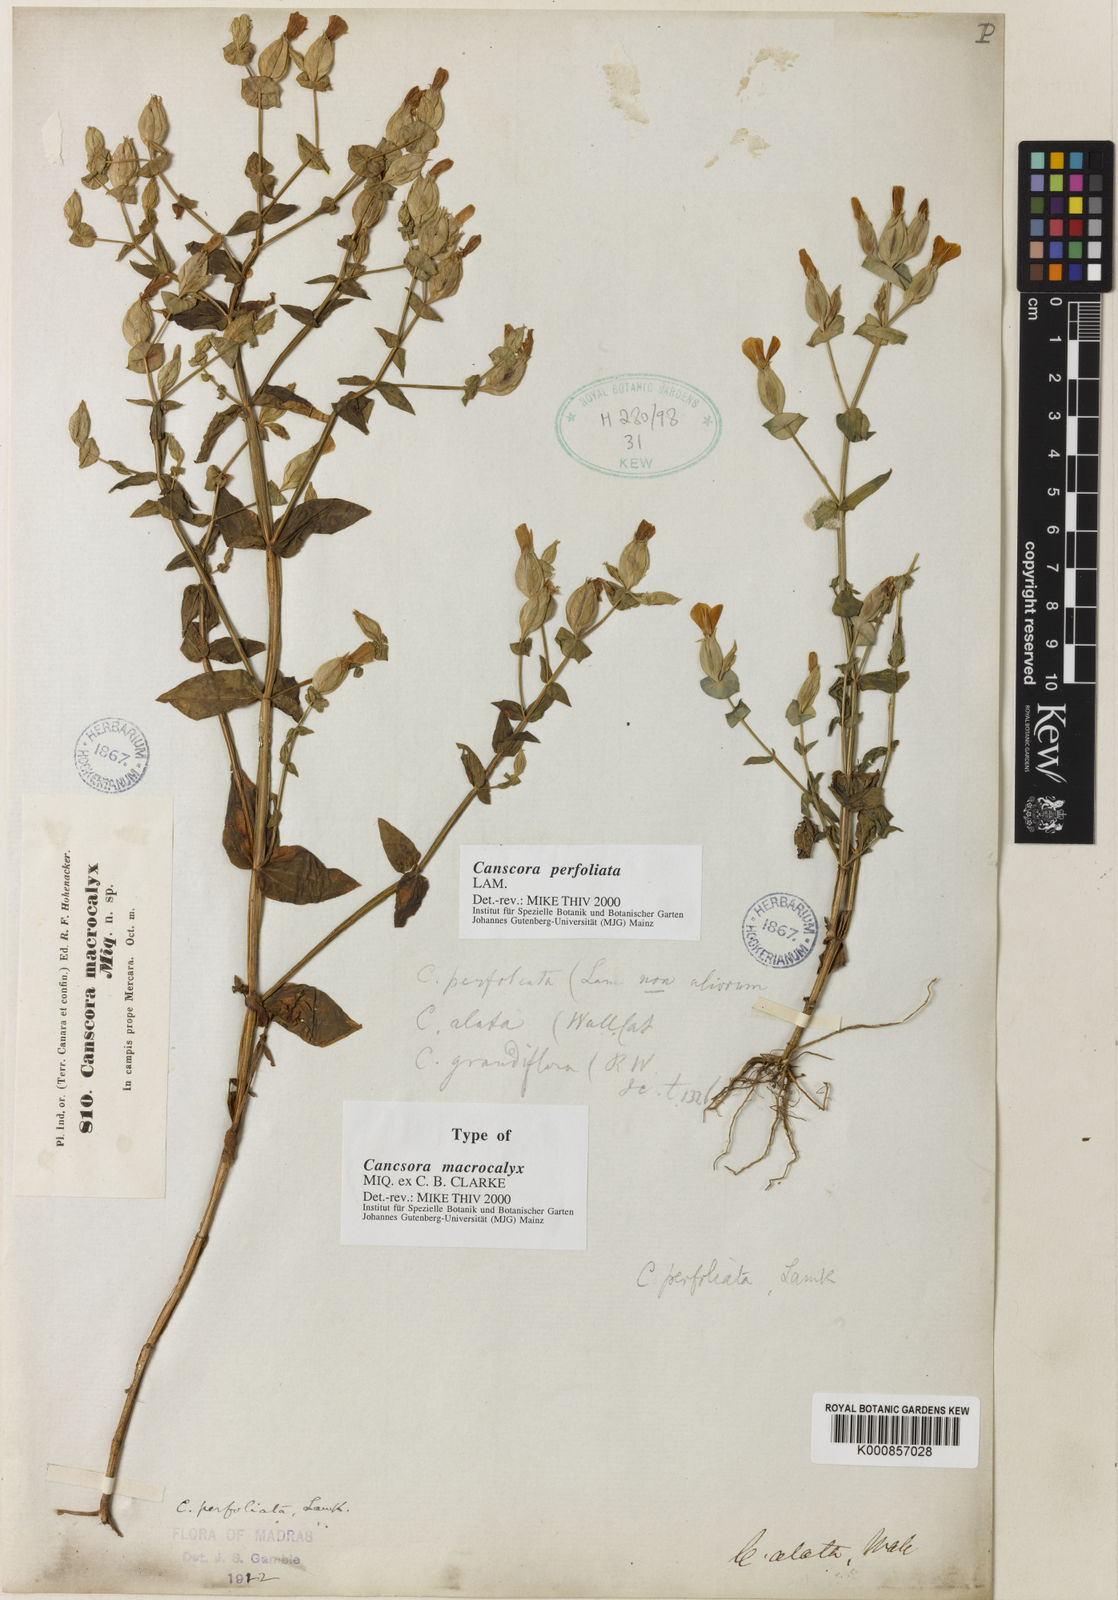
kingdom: Plantae
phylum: Tracheophyta
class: Magnoliopsida
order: Gentianales
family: Gentianaceae
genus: Canscora
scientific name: Canscora perfoliata
